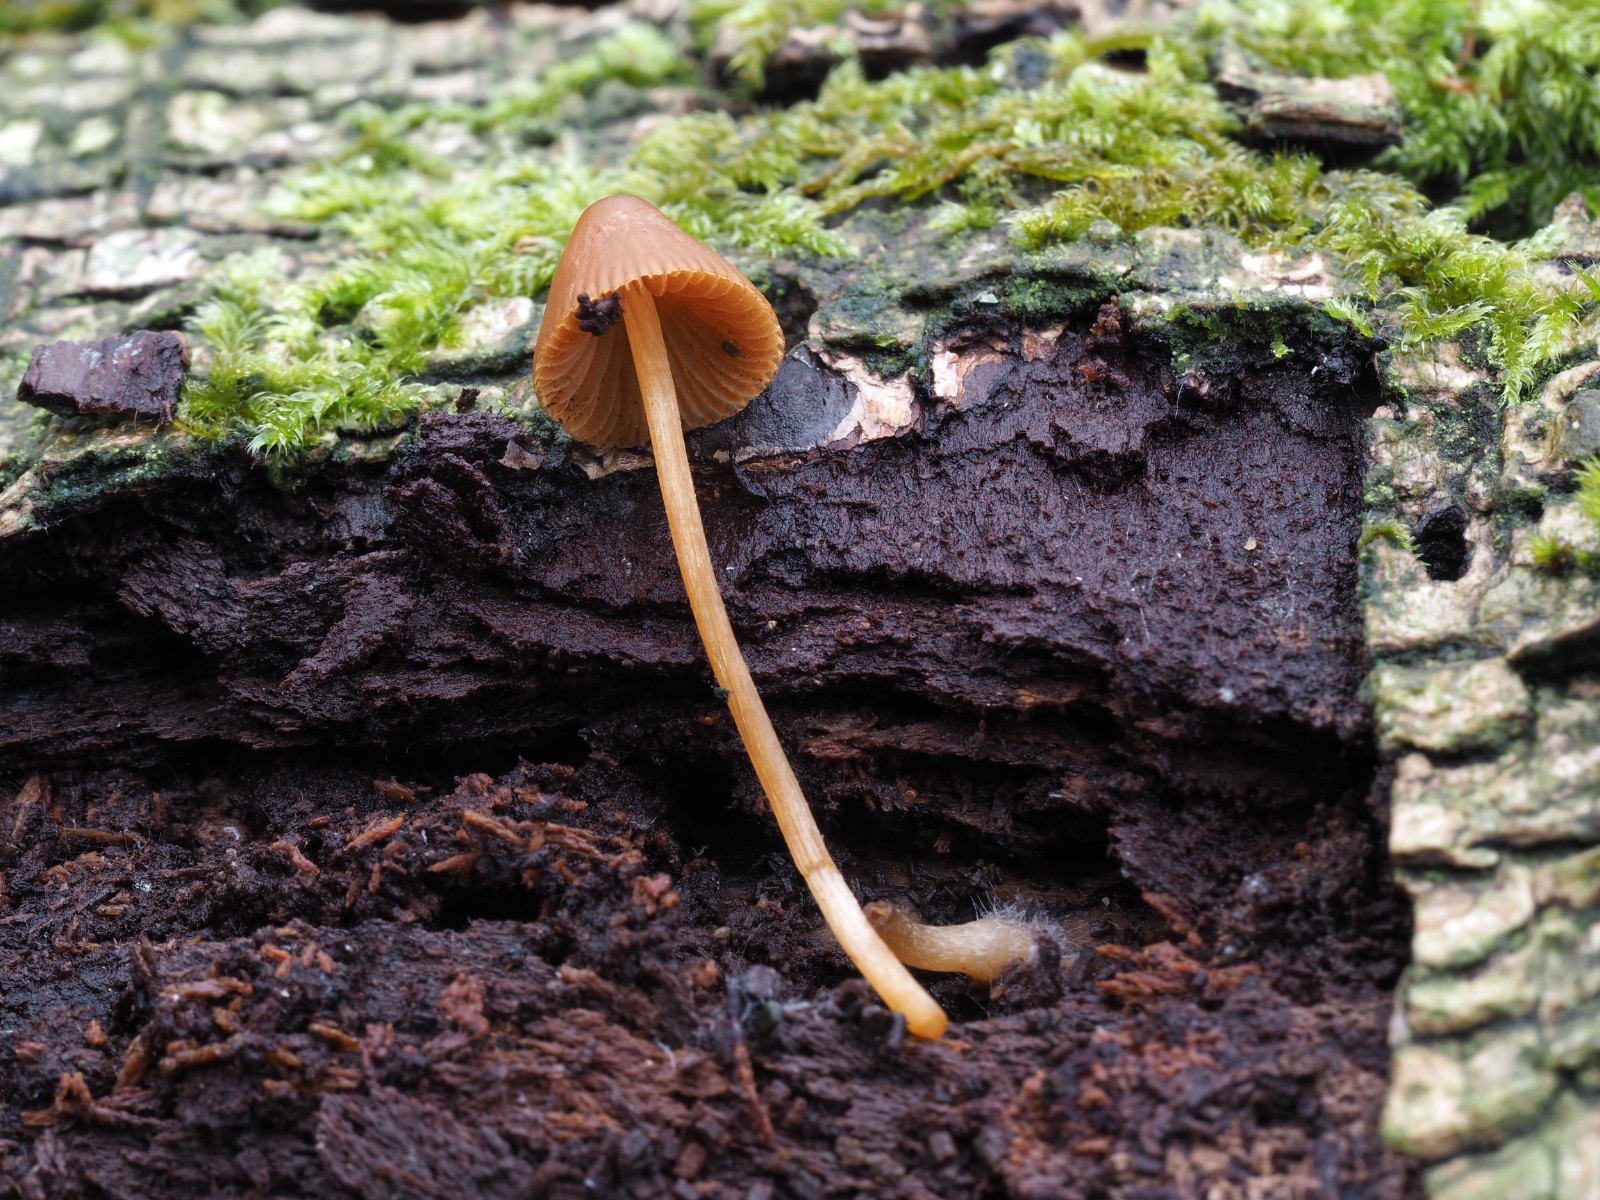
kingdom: Fungi
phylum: Basidiomycota
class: Agaricomycetes
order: Agaricales
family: Bolbitiaceae
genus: Conocybe
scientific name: Conocybe subpubescens
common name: krat-keglehat
